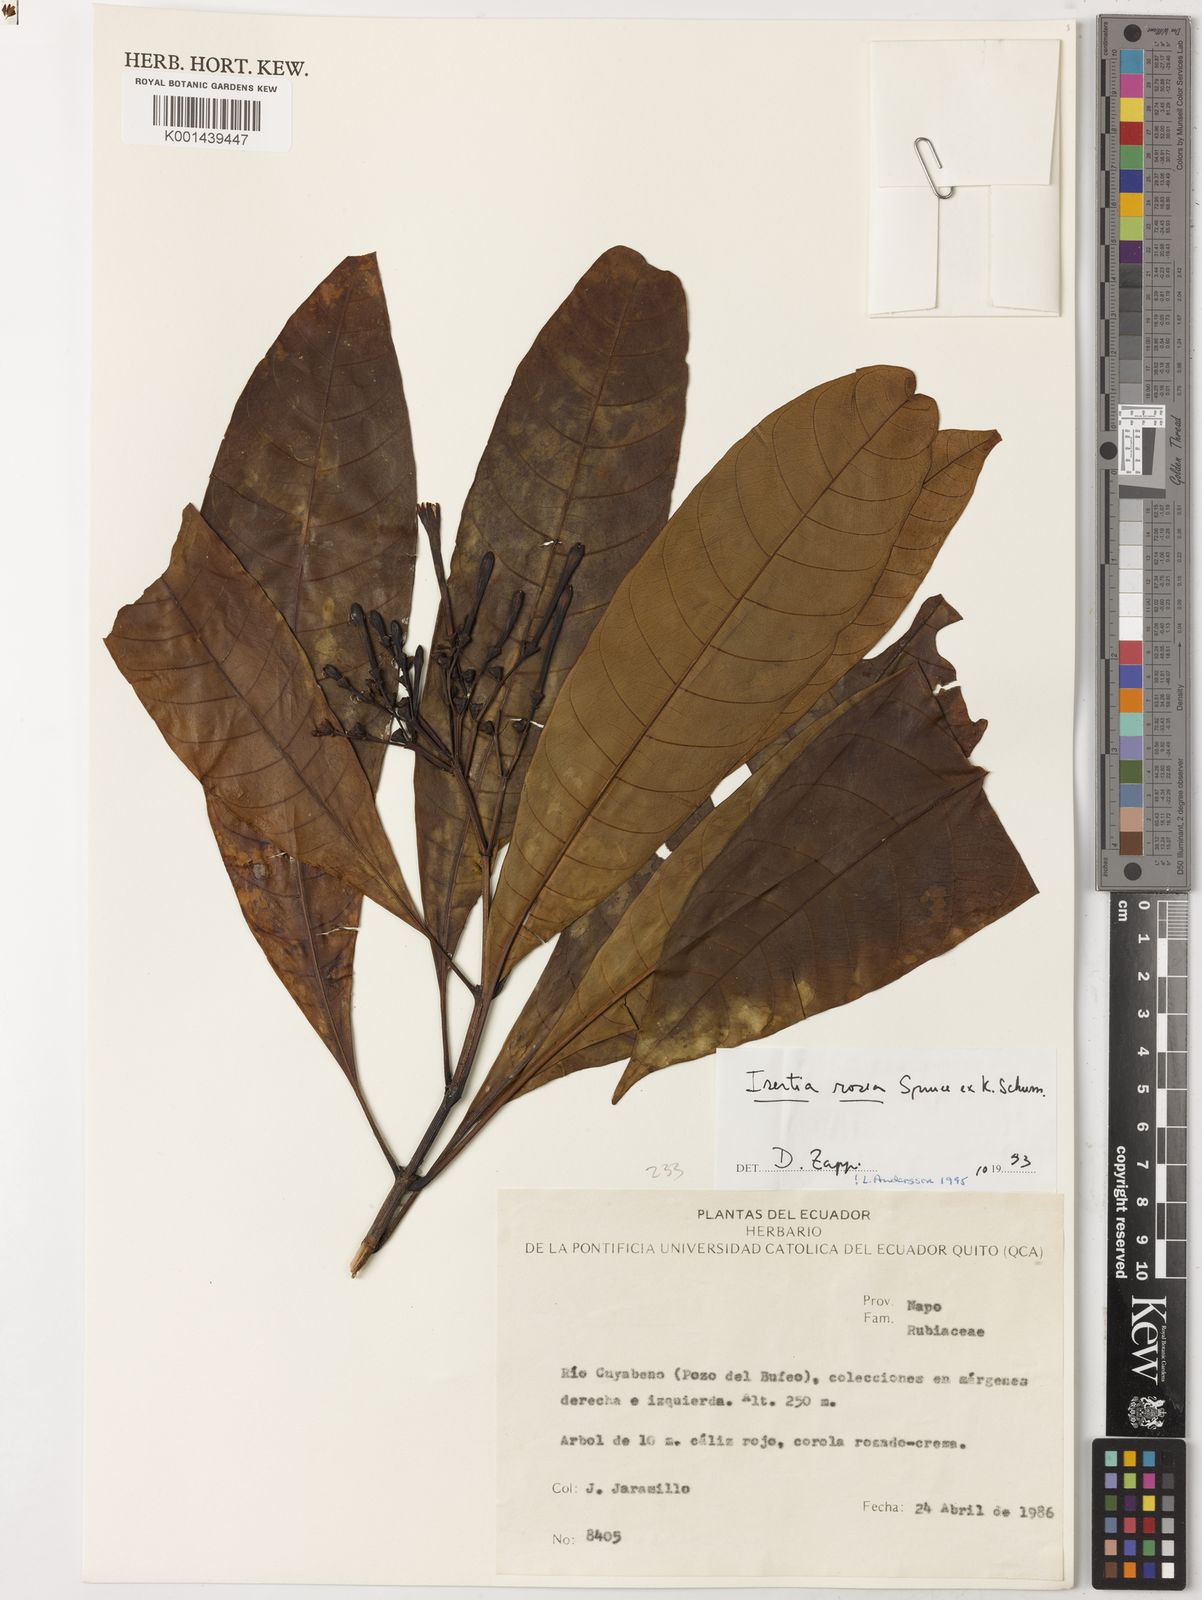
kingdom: Plantae
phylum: Tracheophyta
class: Magnoliopsida
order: Gentianales
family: Rubiaceae
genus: Isertia
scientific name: Isertia rosea
